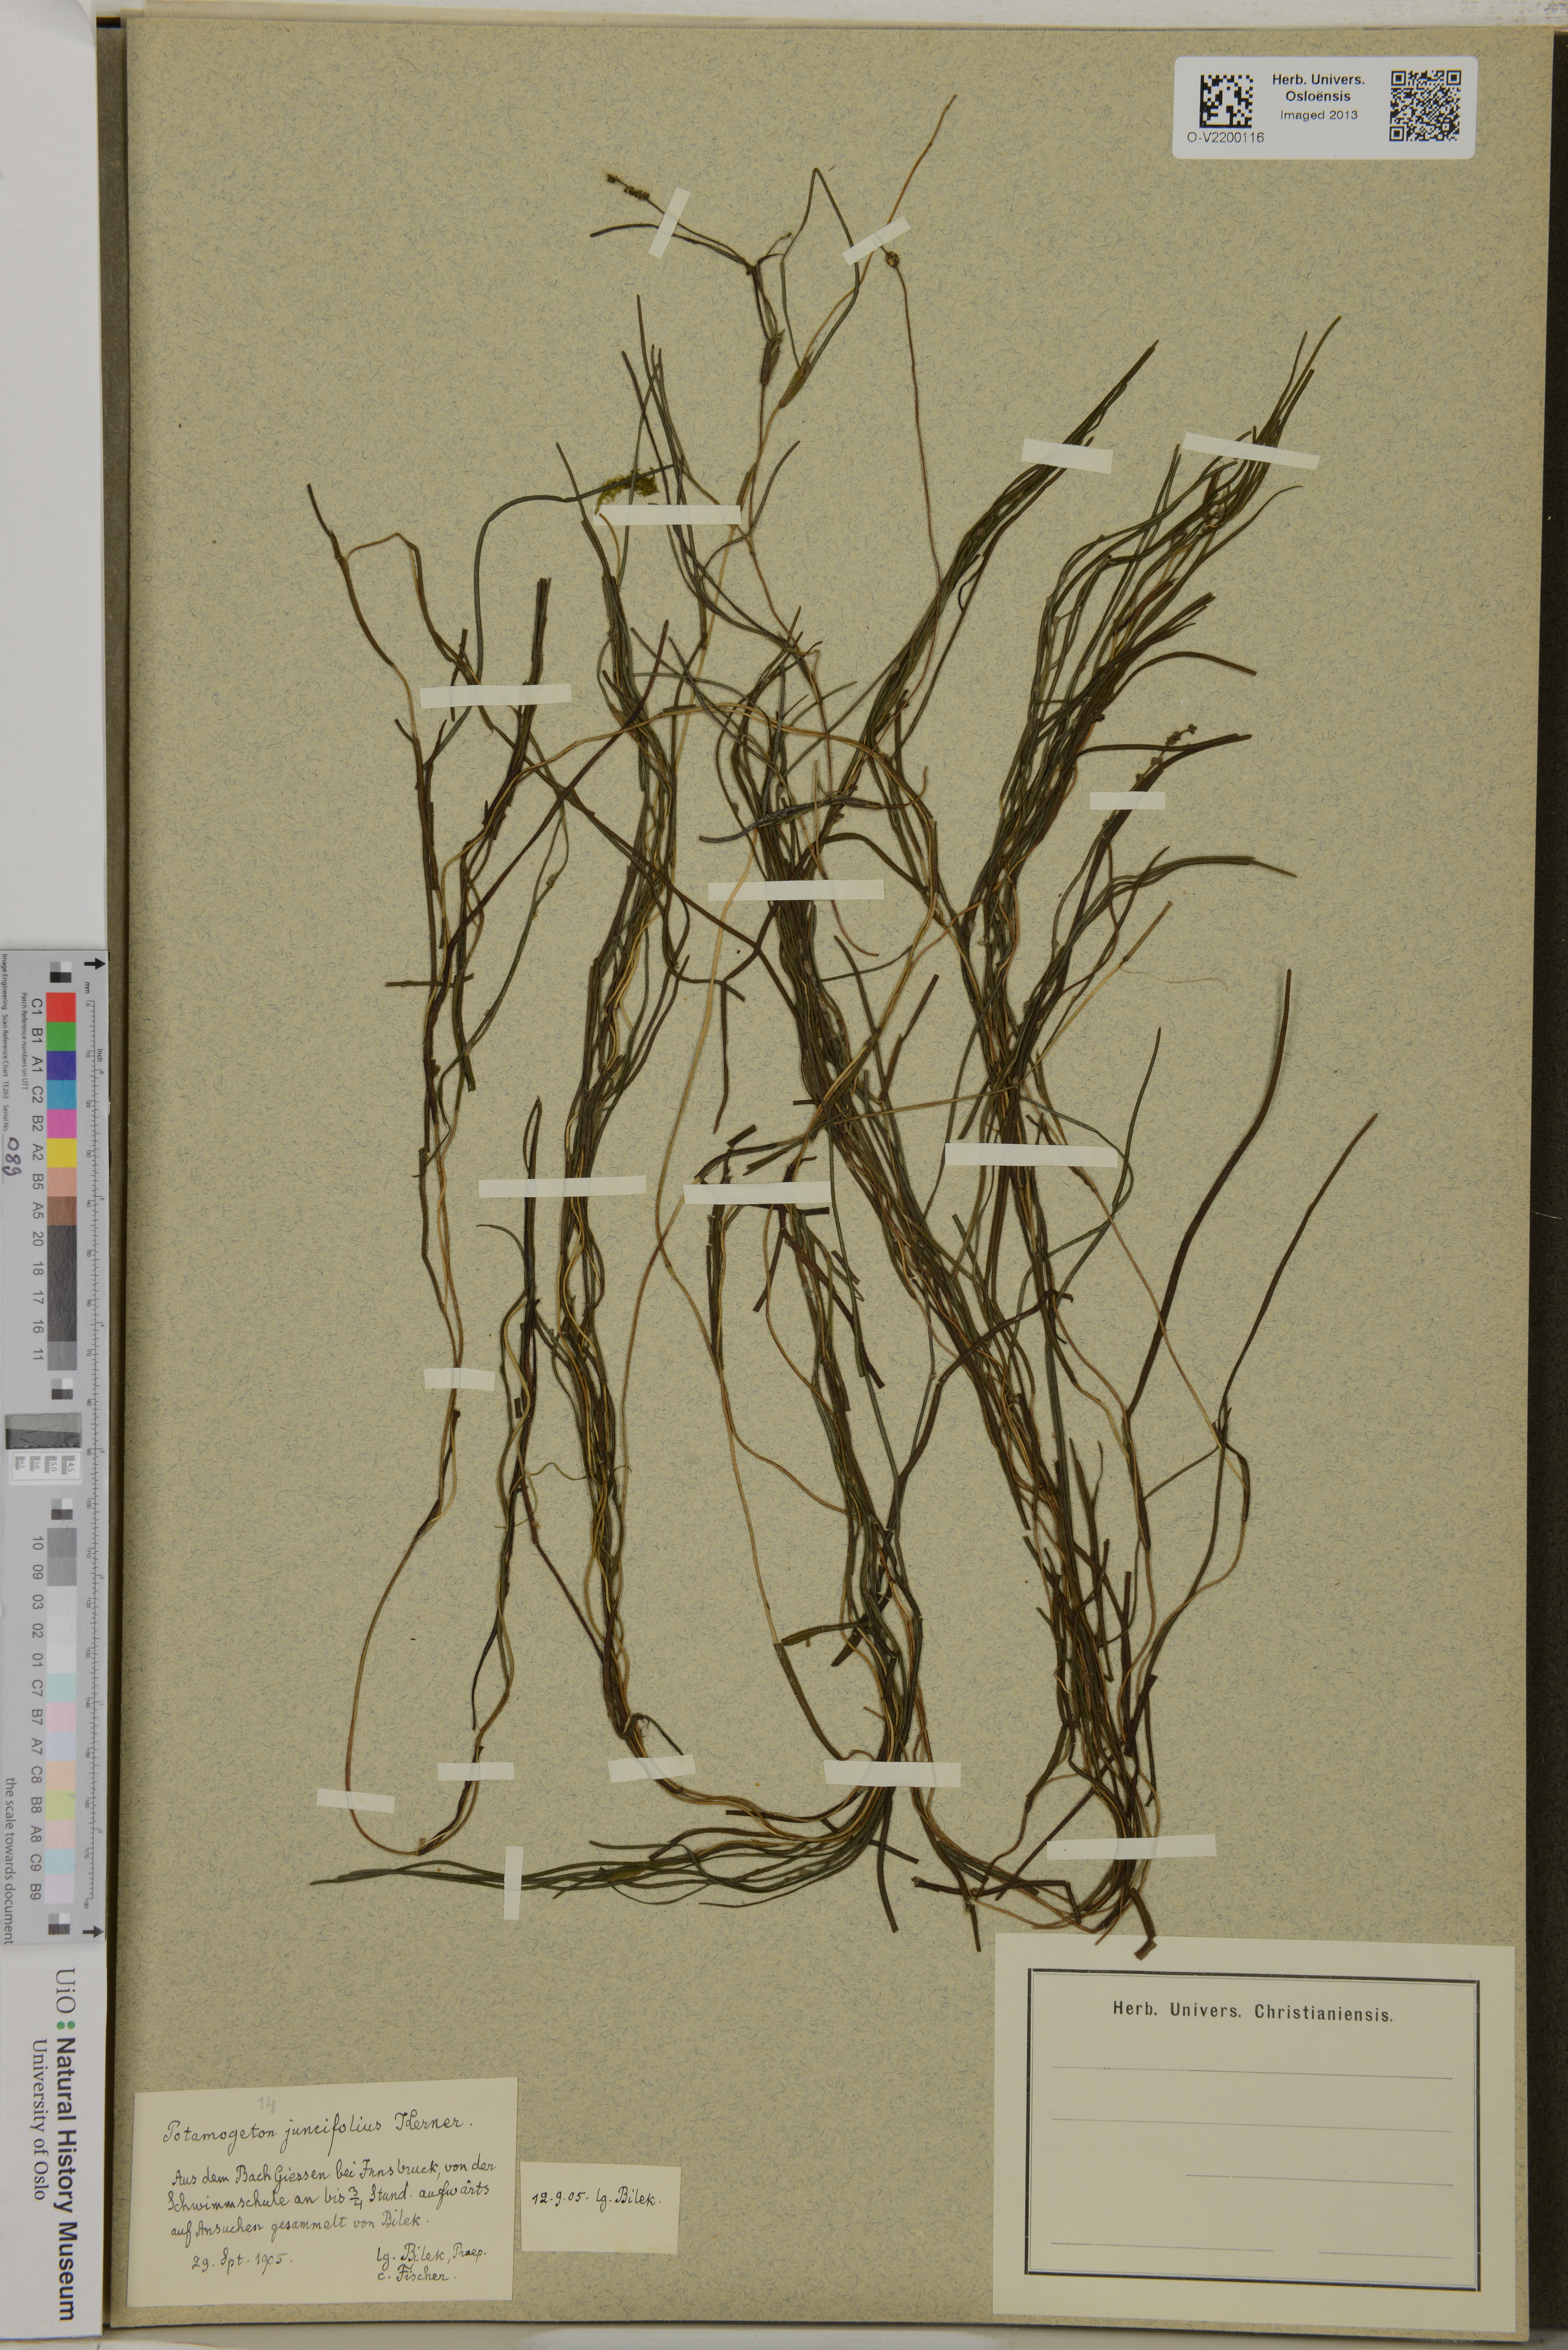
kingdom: Plantae
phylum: Tracheophyta
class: Liliopsida
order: Alismatales
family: Potamogetonaceae
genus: Potamogeton
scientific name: Potamogeton juncifolius
